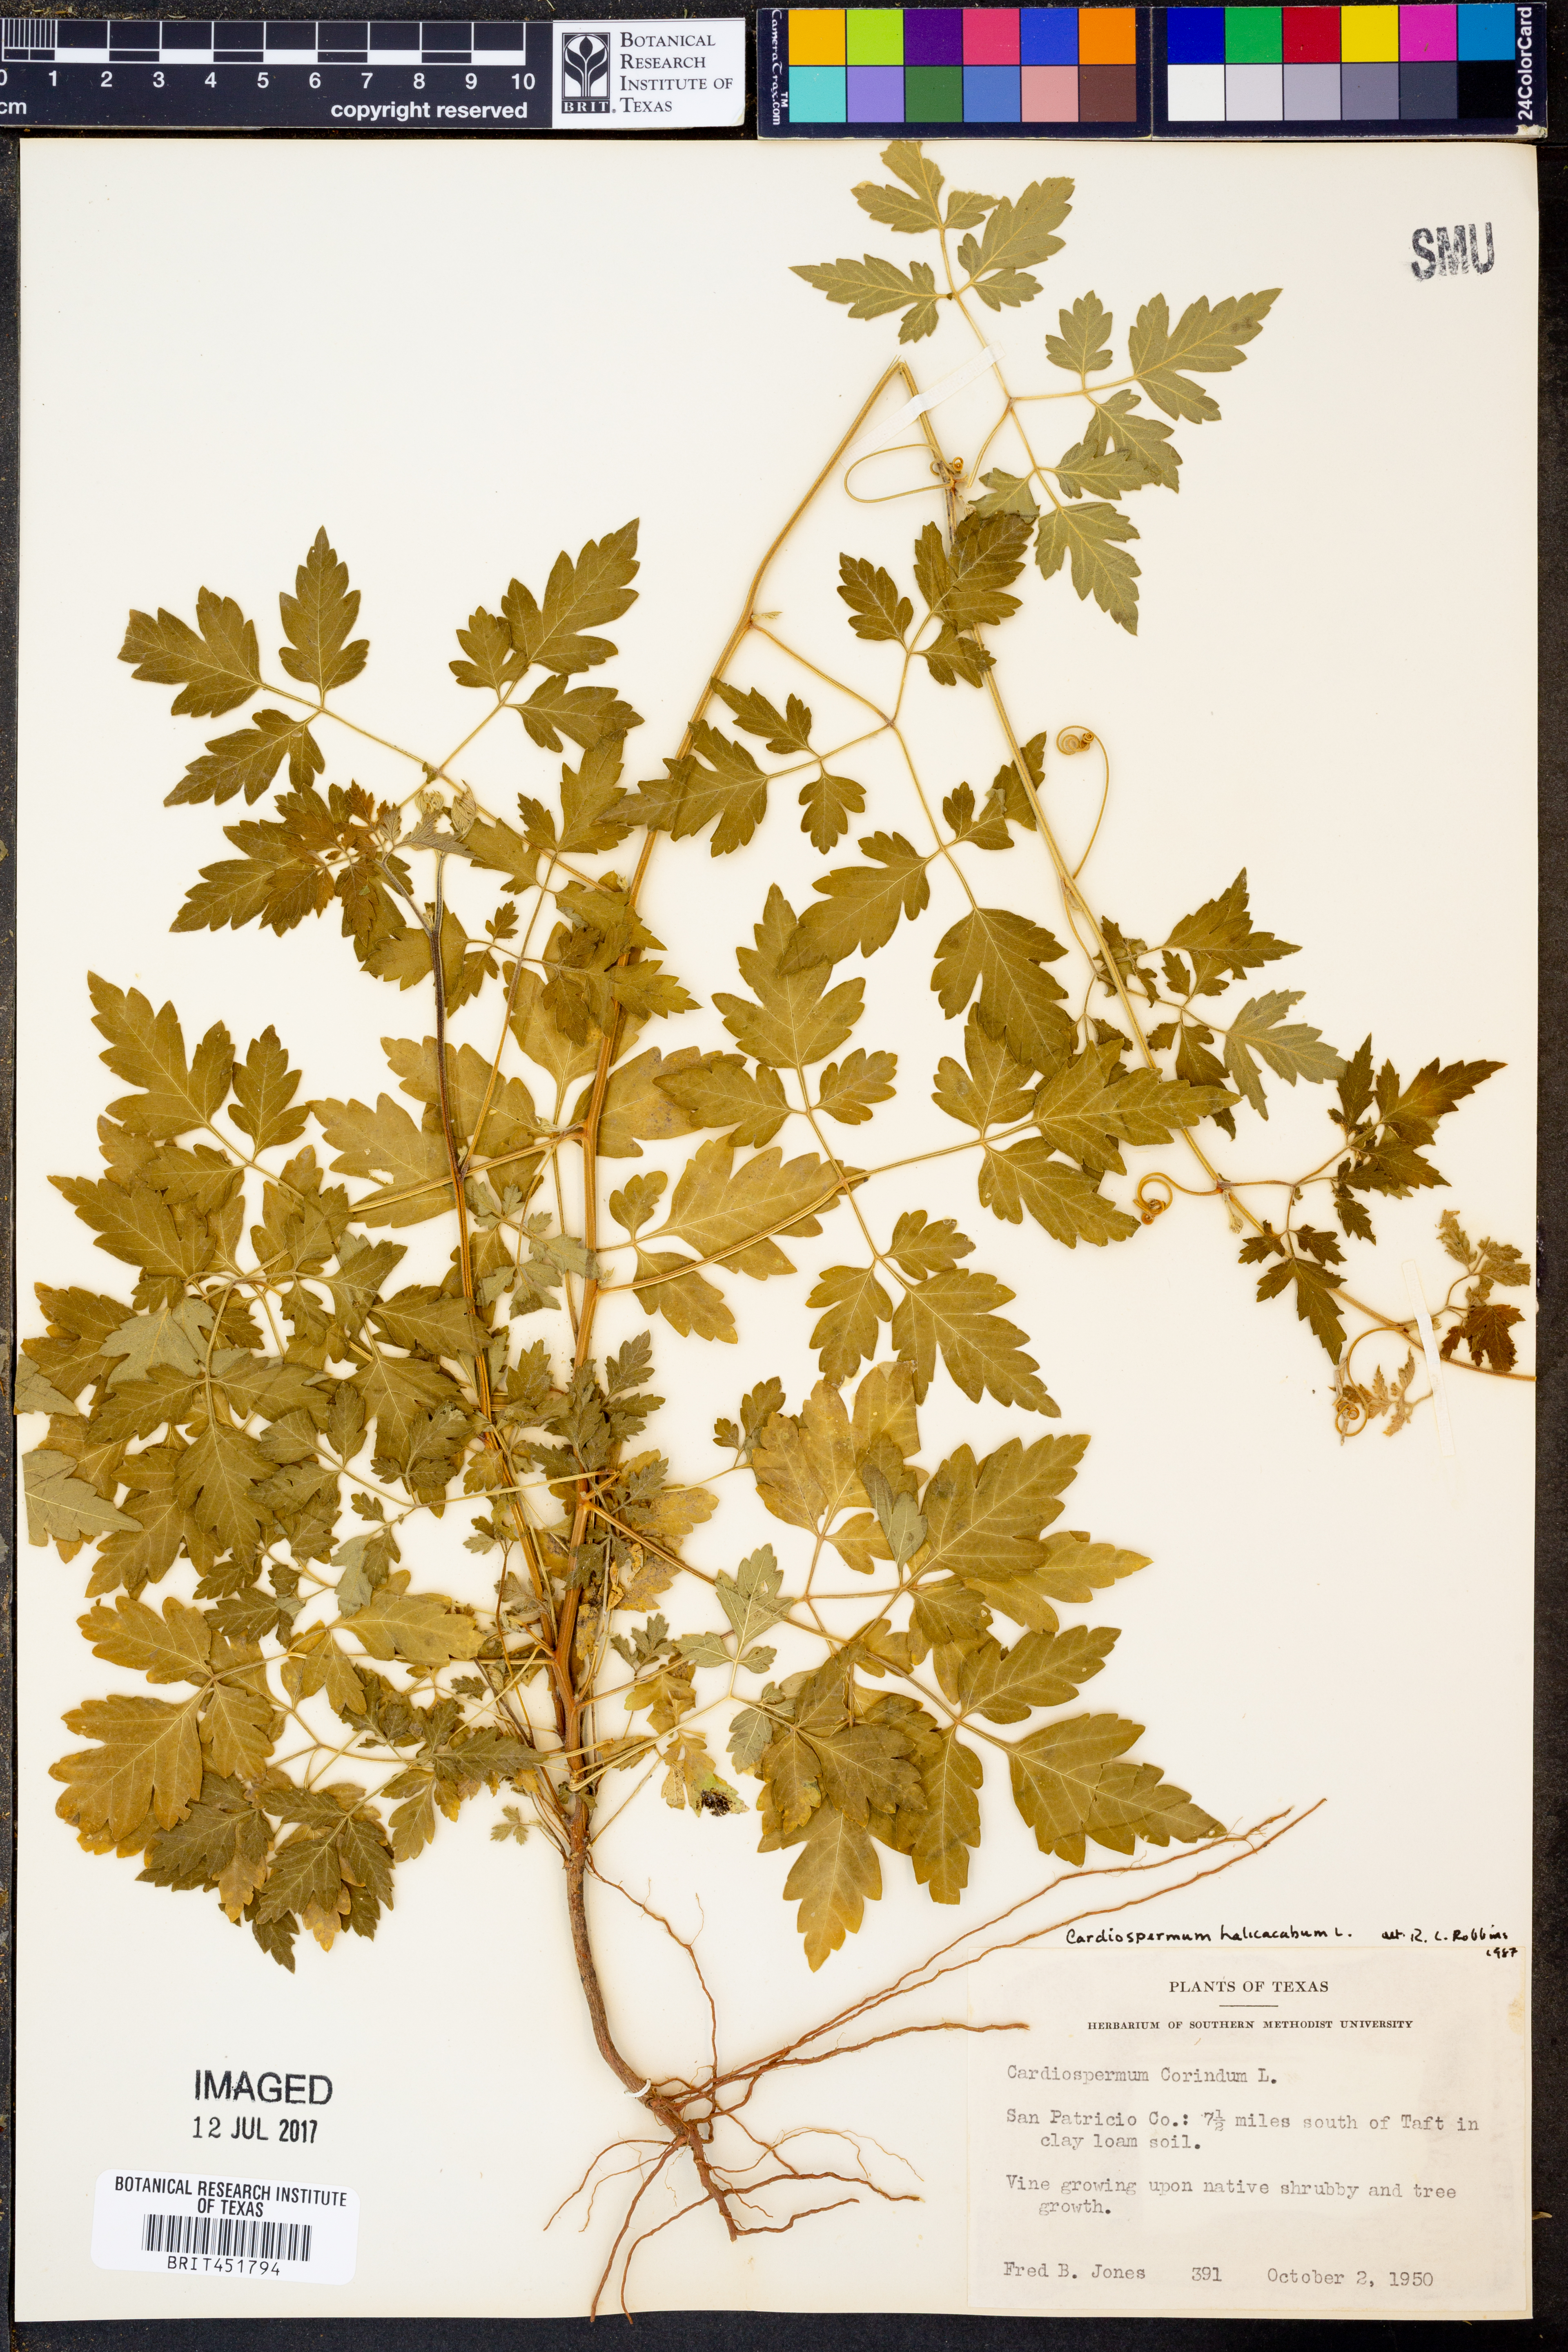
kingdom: Plantae
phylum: Tracheophyta
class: Magnoliopsida
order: Sapindales
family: Sapindaceae
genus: Cardiospermum
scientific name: Cardiospermum halicacabum
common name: Balloon vine
